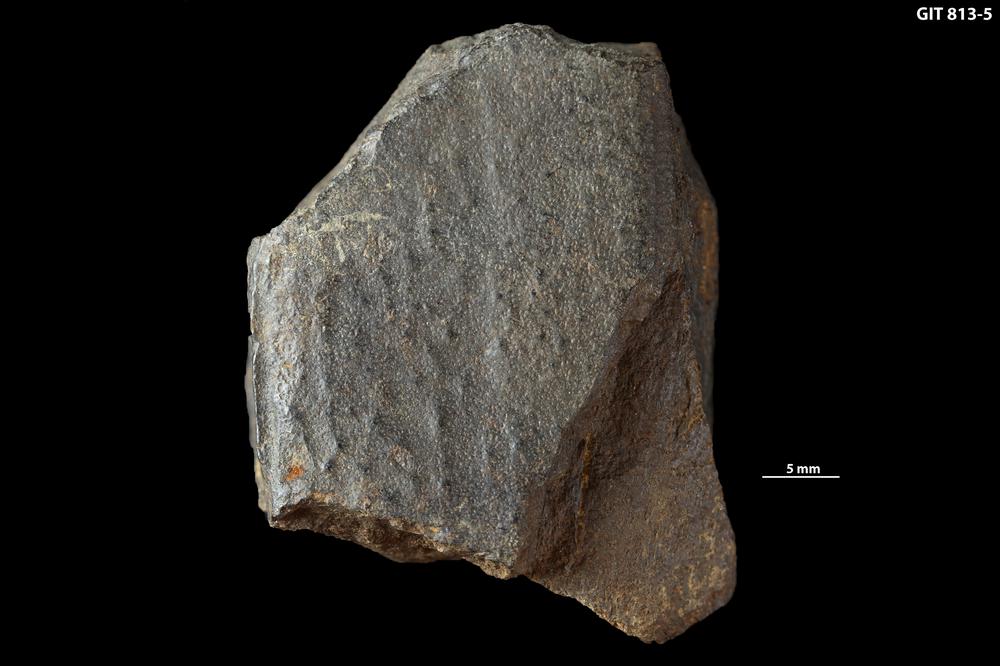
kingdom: Animalia
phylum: Chordata
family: Homostiidae
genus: Homostius
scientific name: Homostius
